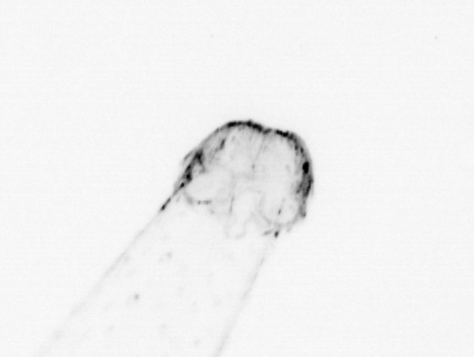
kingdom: Animalia
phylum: Chaetognatha
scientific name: Chaetognatha
